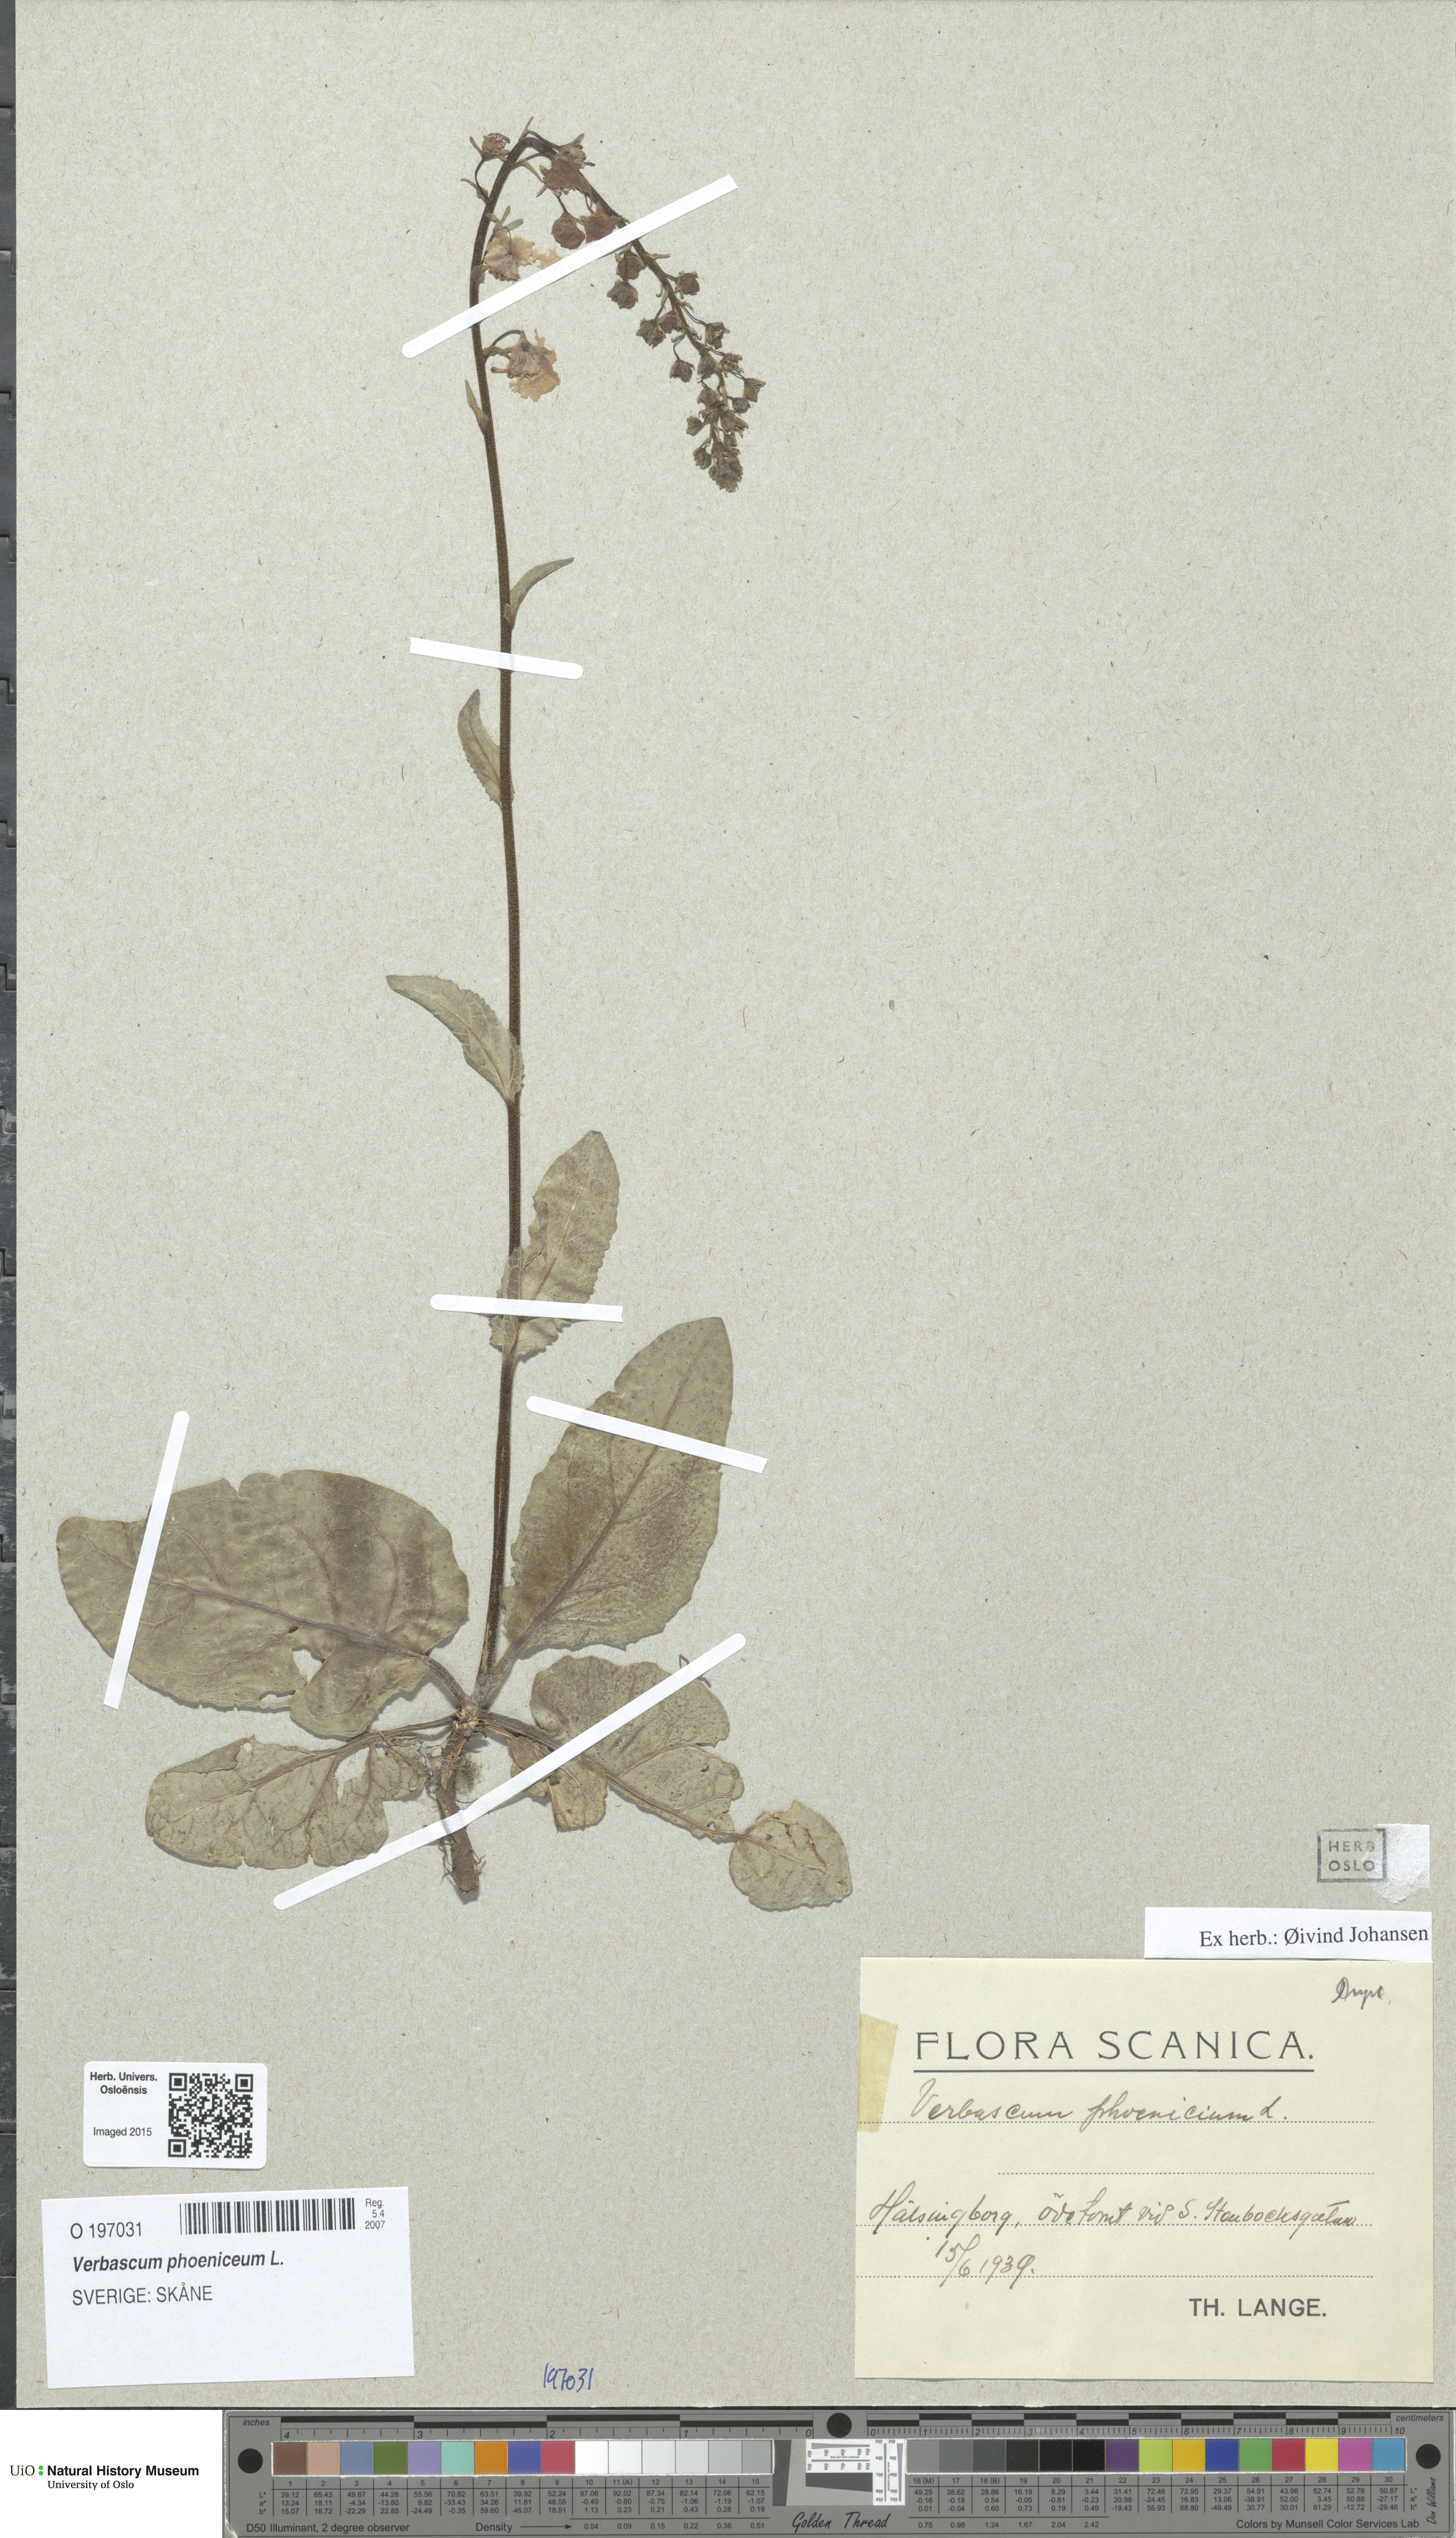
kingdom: Plantae
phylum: Tracheophyta
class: Magnoliopsida
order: Lamiales
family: Scrophulariaceae
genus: Verbascum
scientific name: Verbascum phoeniceum
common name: Purple mullein
